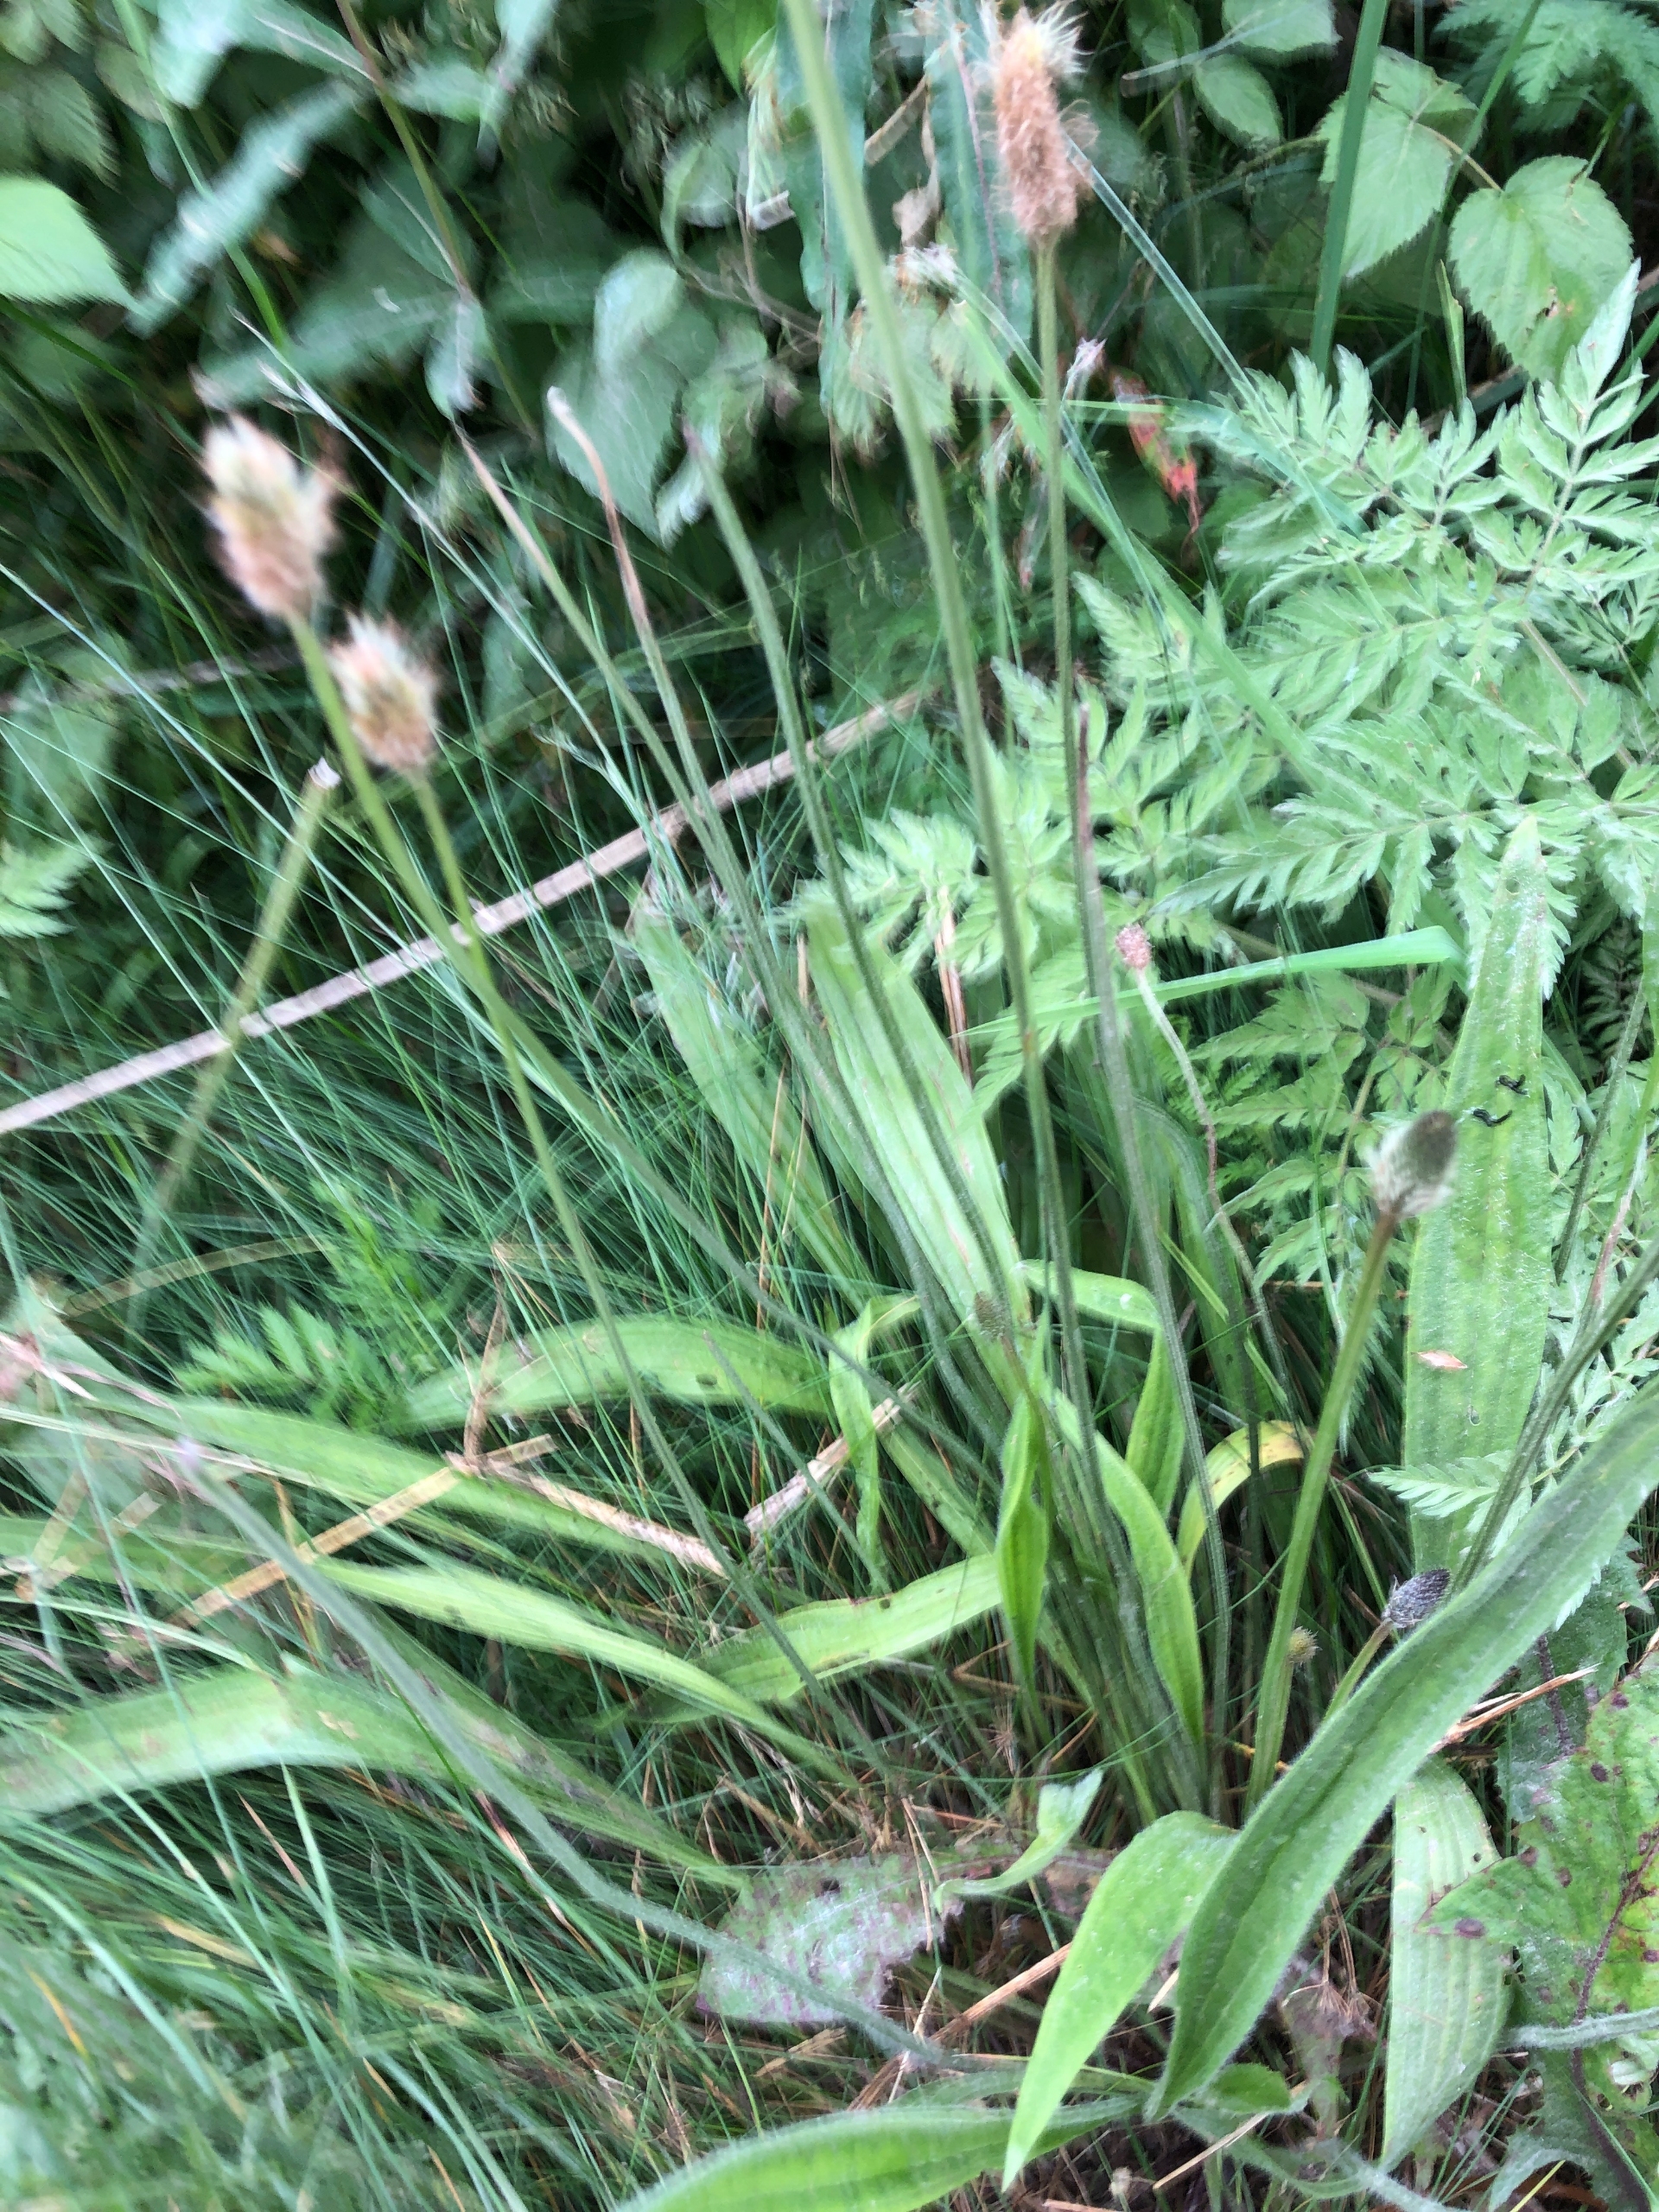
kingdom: Plantae
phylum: Tracheophyta
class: Magnoliopsida
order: Lamiales
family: Plantaginaceae
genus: Plantago
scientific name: Plantago lanceolata
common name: Lancet-vejbred
